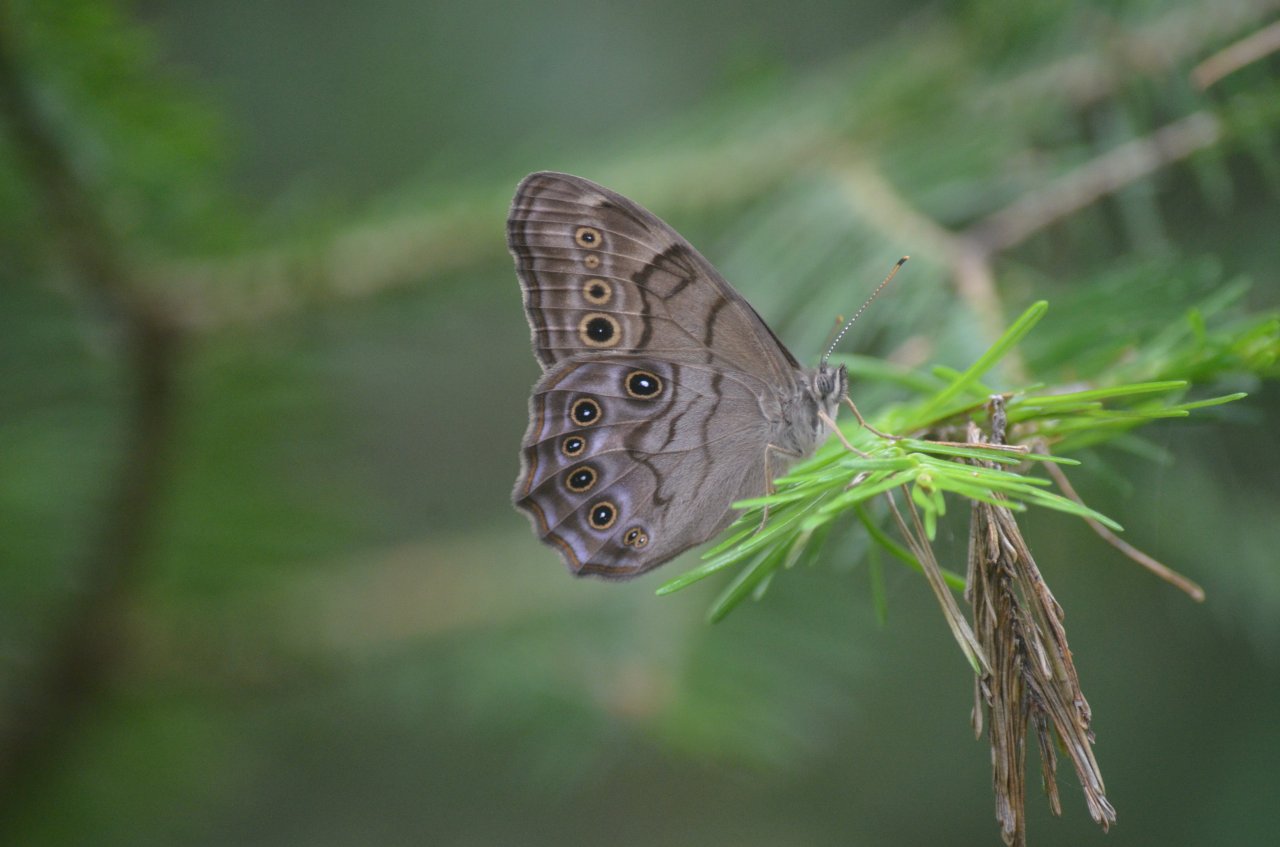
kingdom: Animalia
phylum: Arthropoda
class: Insecta
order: Lepidoptera
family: Nymphalidae
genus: Lethe
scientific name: Lethe anthedon
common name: Northern Pearly-Eye
